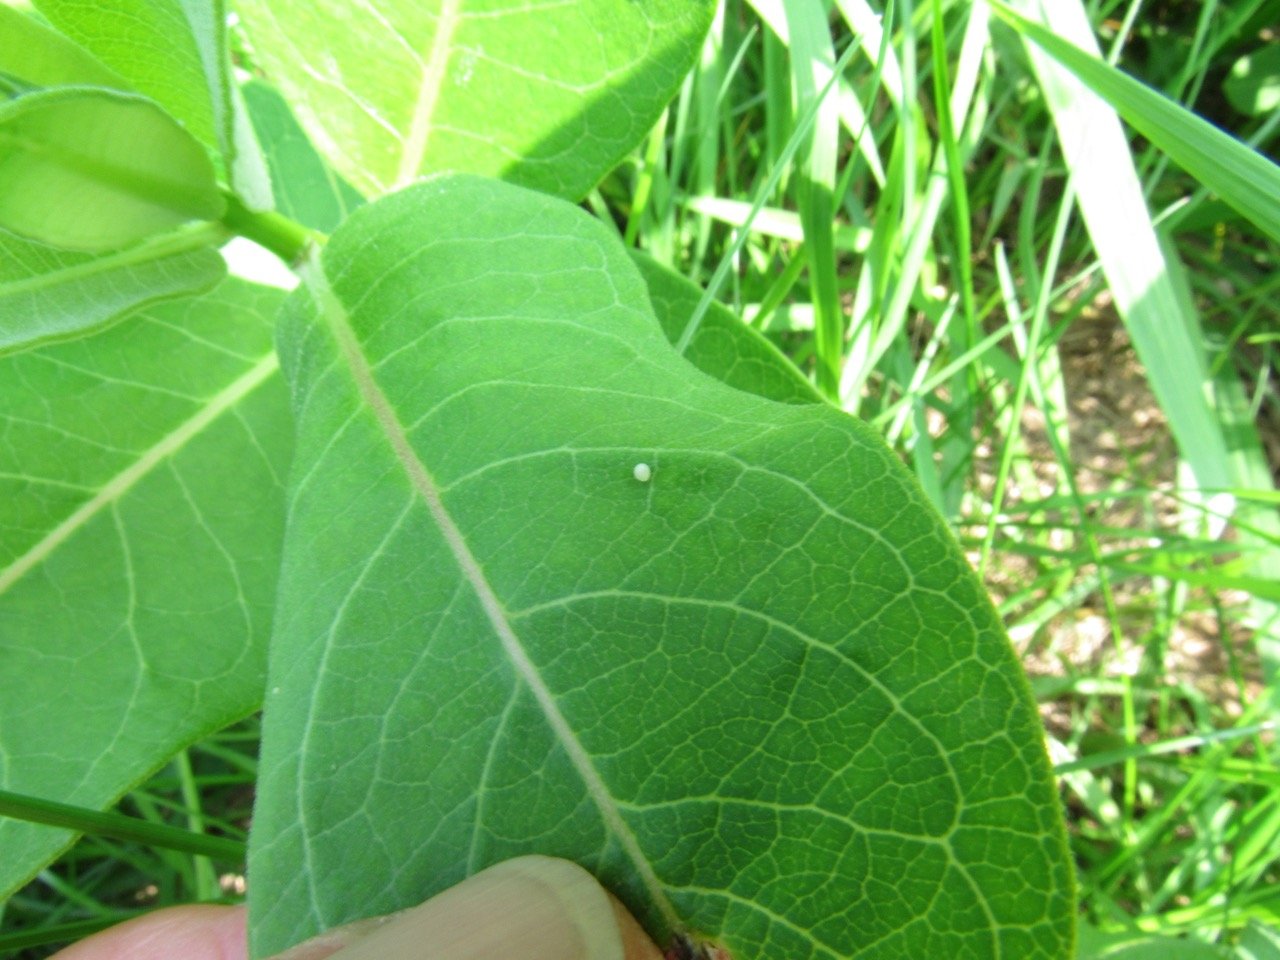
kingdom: Animalia
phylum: Arthropoda
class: Insecta
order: Lepidoptera
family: Nymphalidae
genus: Danaus
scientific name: Danaus plexippus
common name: Monarch
